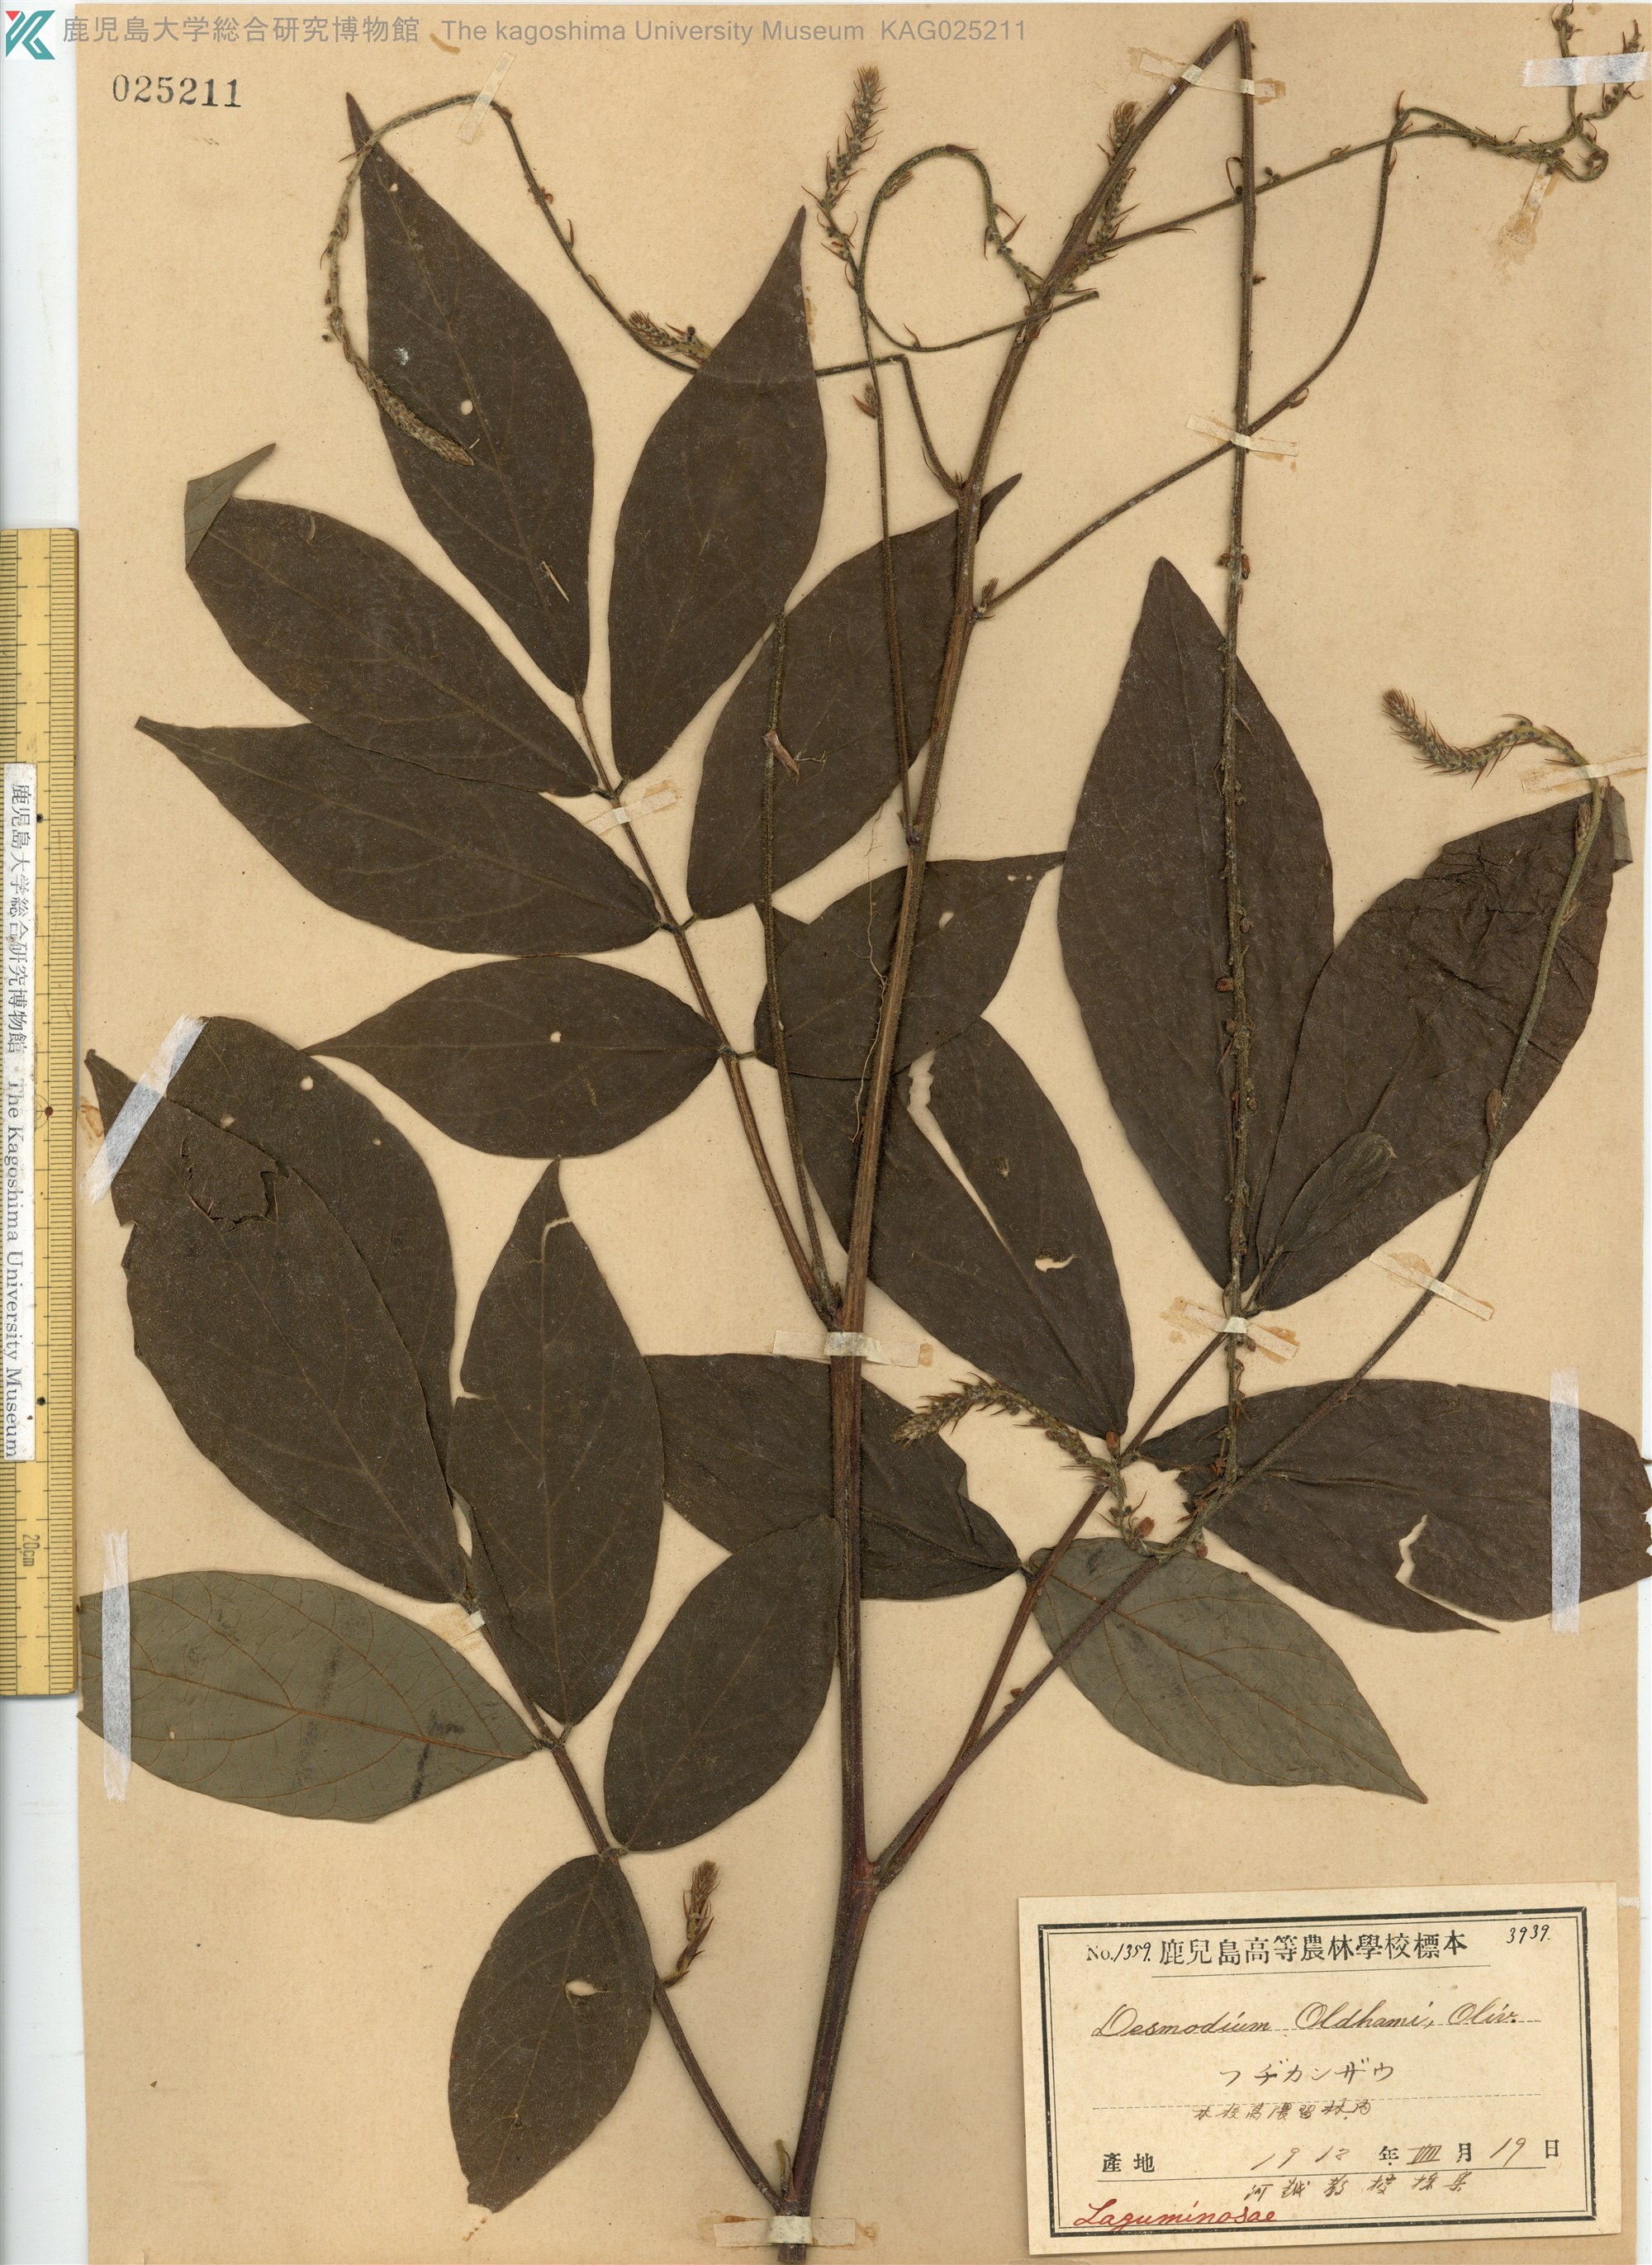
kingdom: Plantae
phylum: Tracheophyta
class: Magnoliopsida
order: Fabales
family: Fabaceae
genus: Hylodesmum
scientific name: Hylodesmum oldhamii
